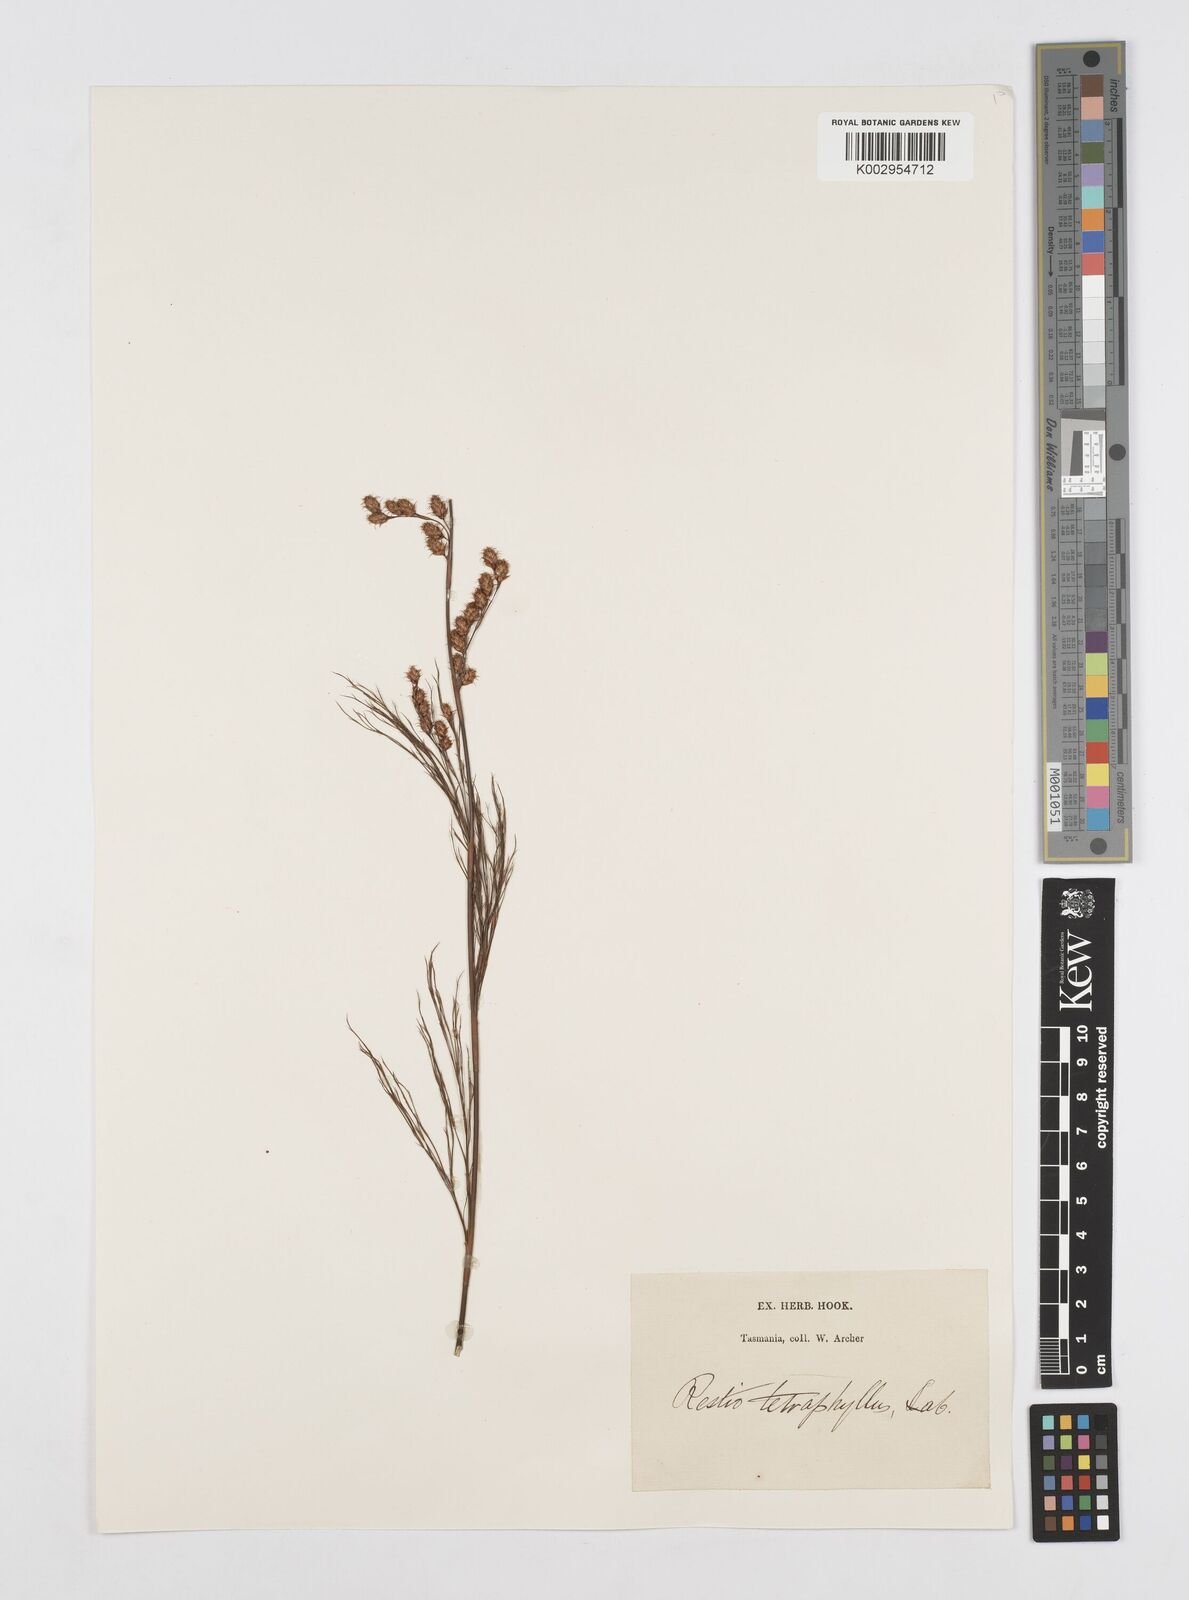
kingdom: Plantae
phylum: Tracheophyta
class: Liliopsida
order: Poales
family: Restionaceae
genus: Baloskion
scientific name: Baloskion tetraphyllum
